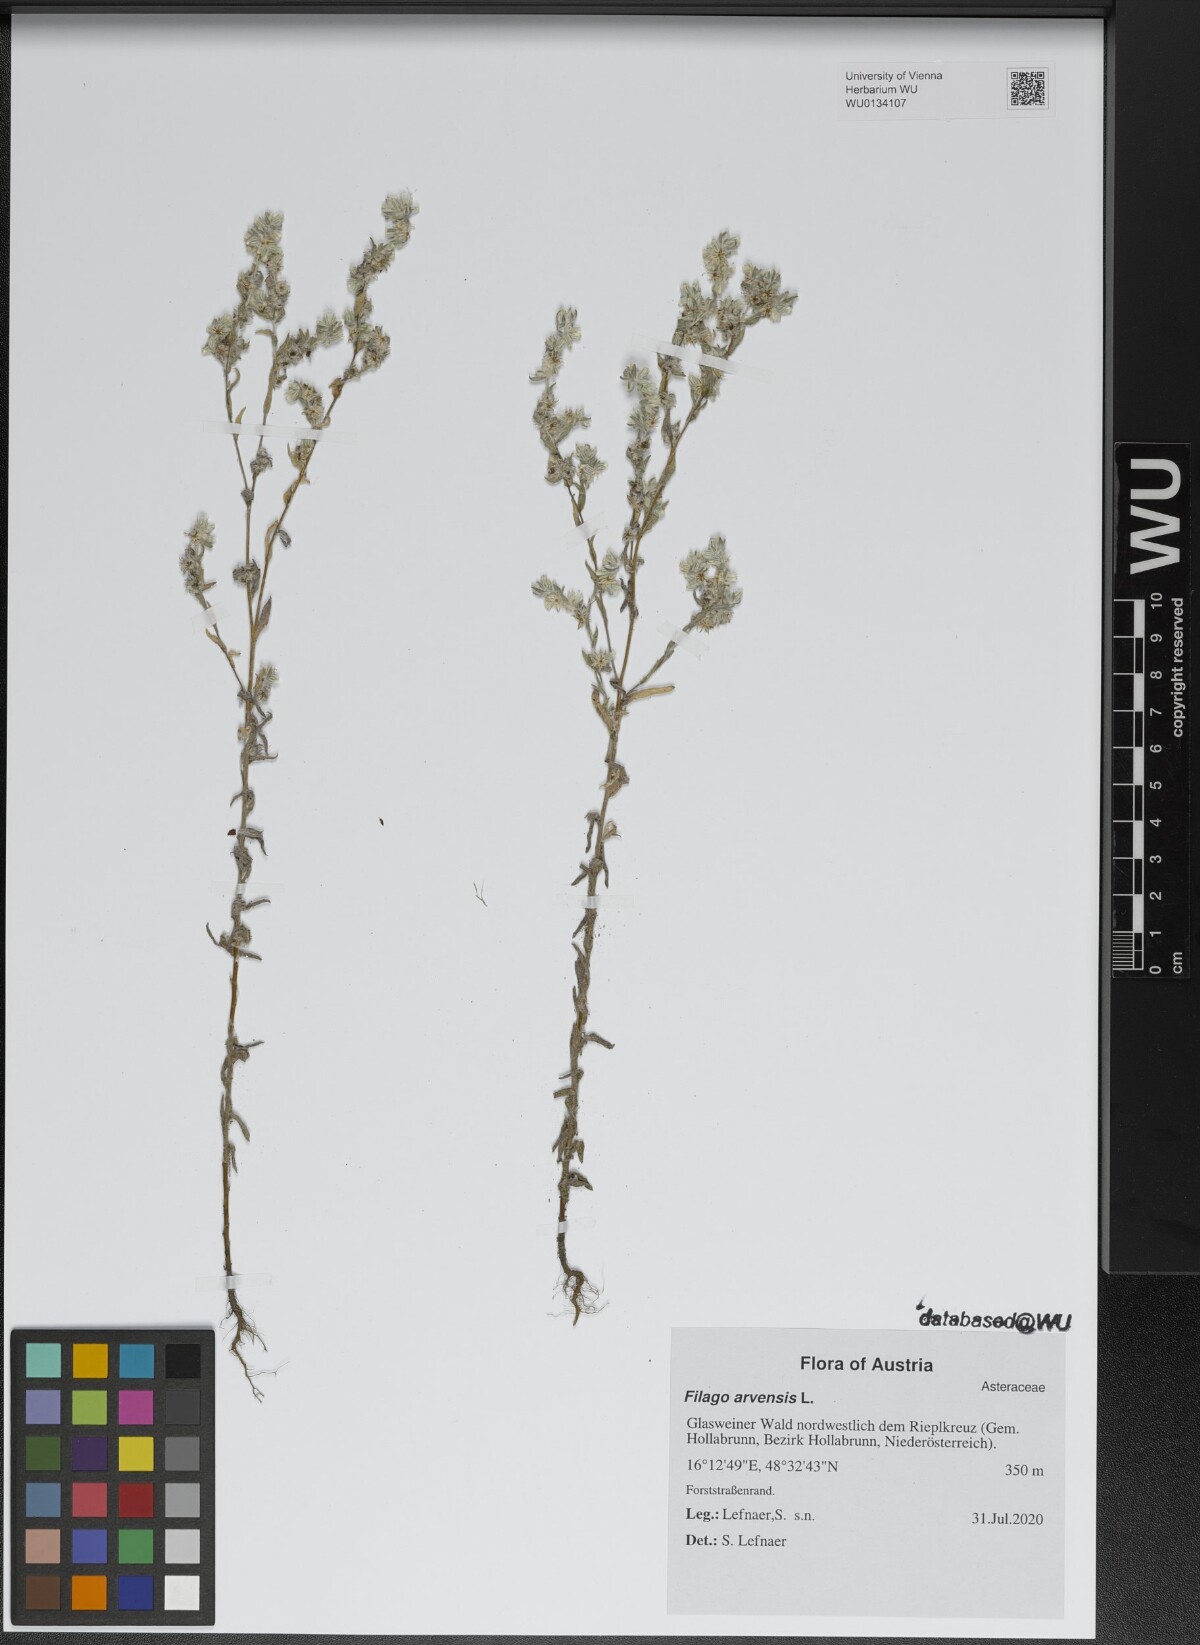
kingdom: Plantae
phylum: Tracheophyta
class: Magnoliopsida
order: Asterales
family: Asteraceae
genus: Filago
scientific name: Filago arvensis
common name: Field cudweed
